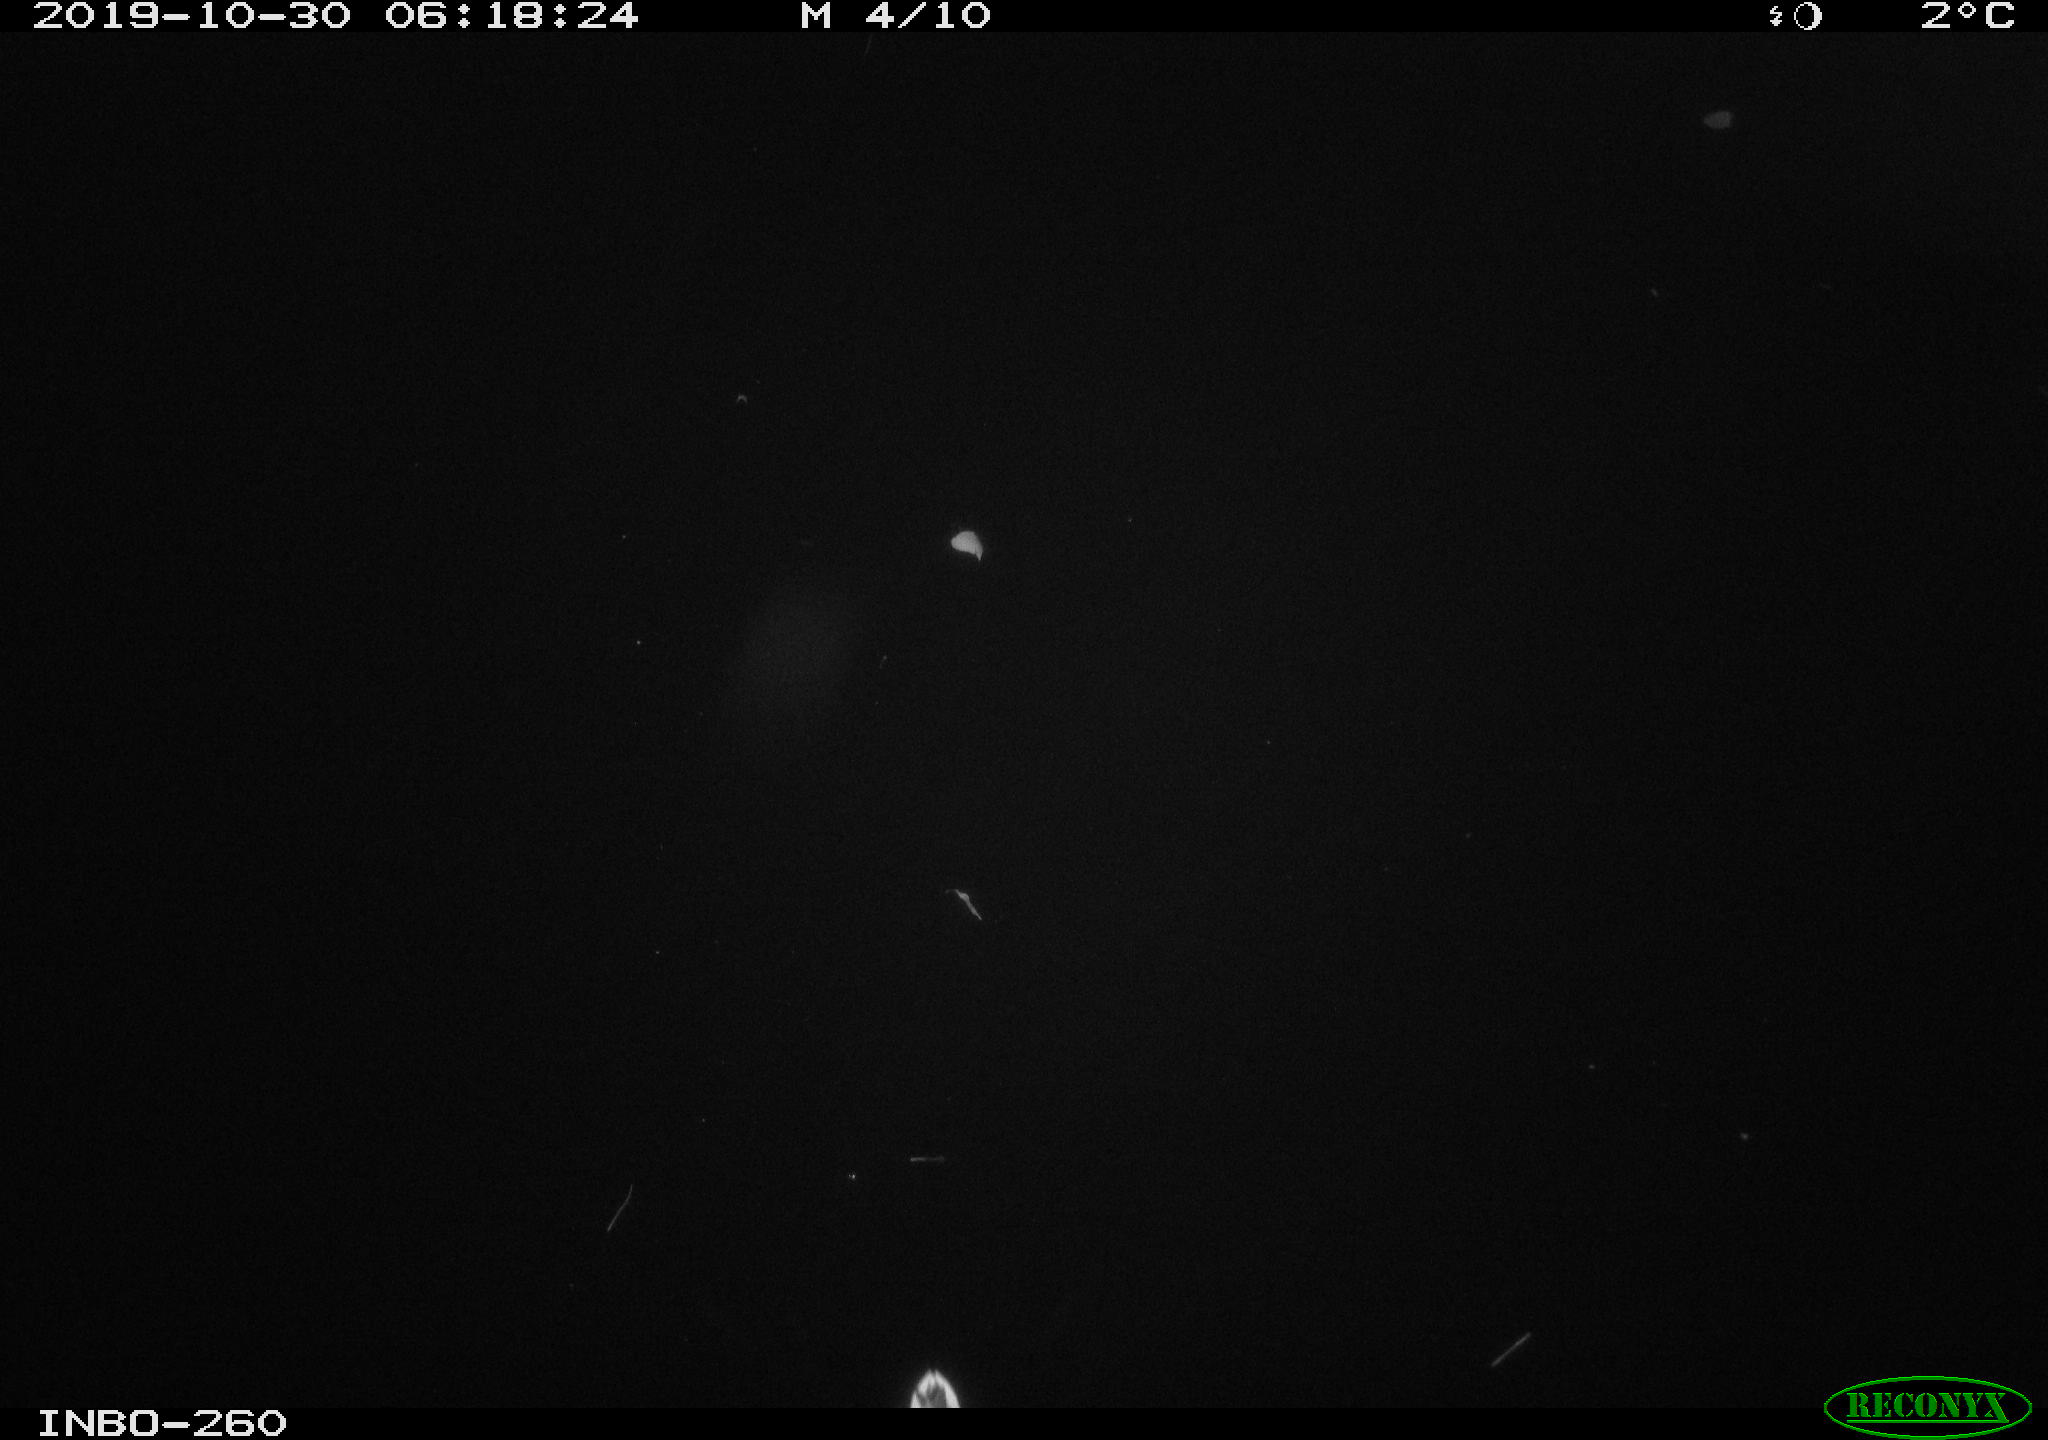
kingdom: Animalia
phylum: Chordata
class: Aves
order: Anseriformes
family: Anatidae
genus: Anas
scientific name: Anas platyrhynchos
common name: Mallard
